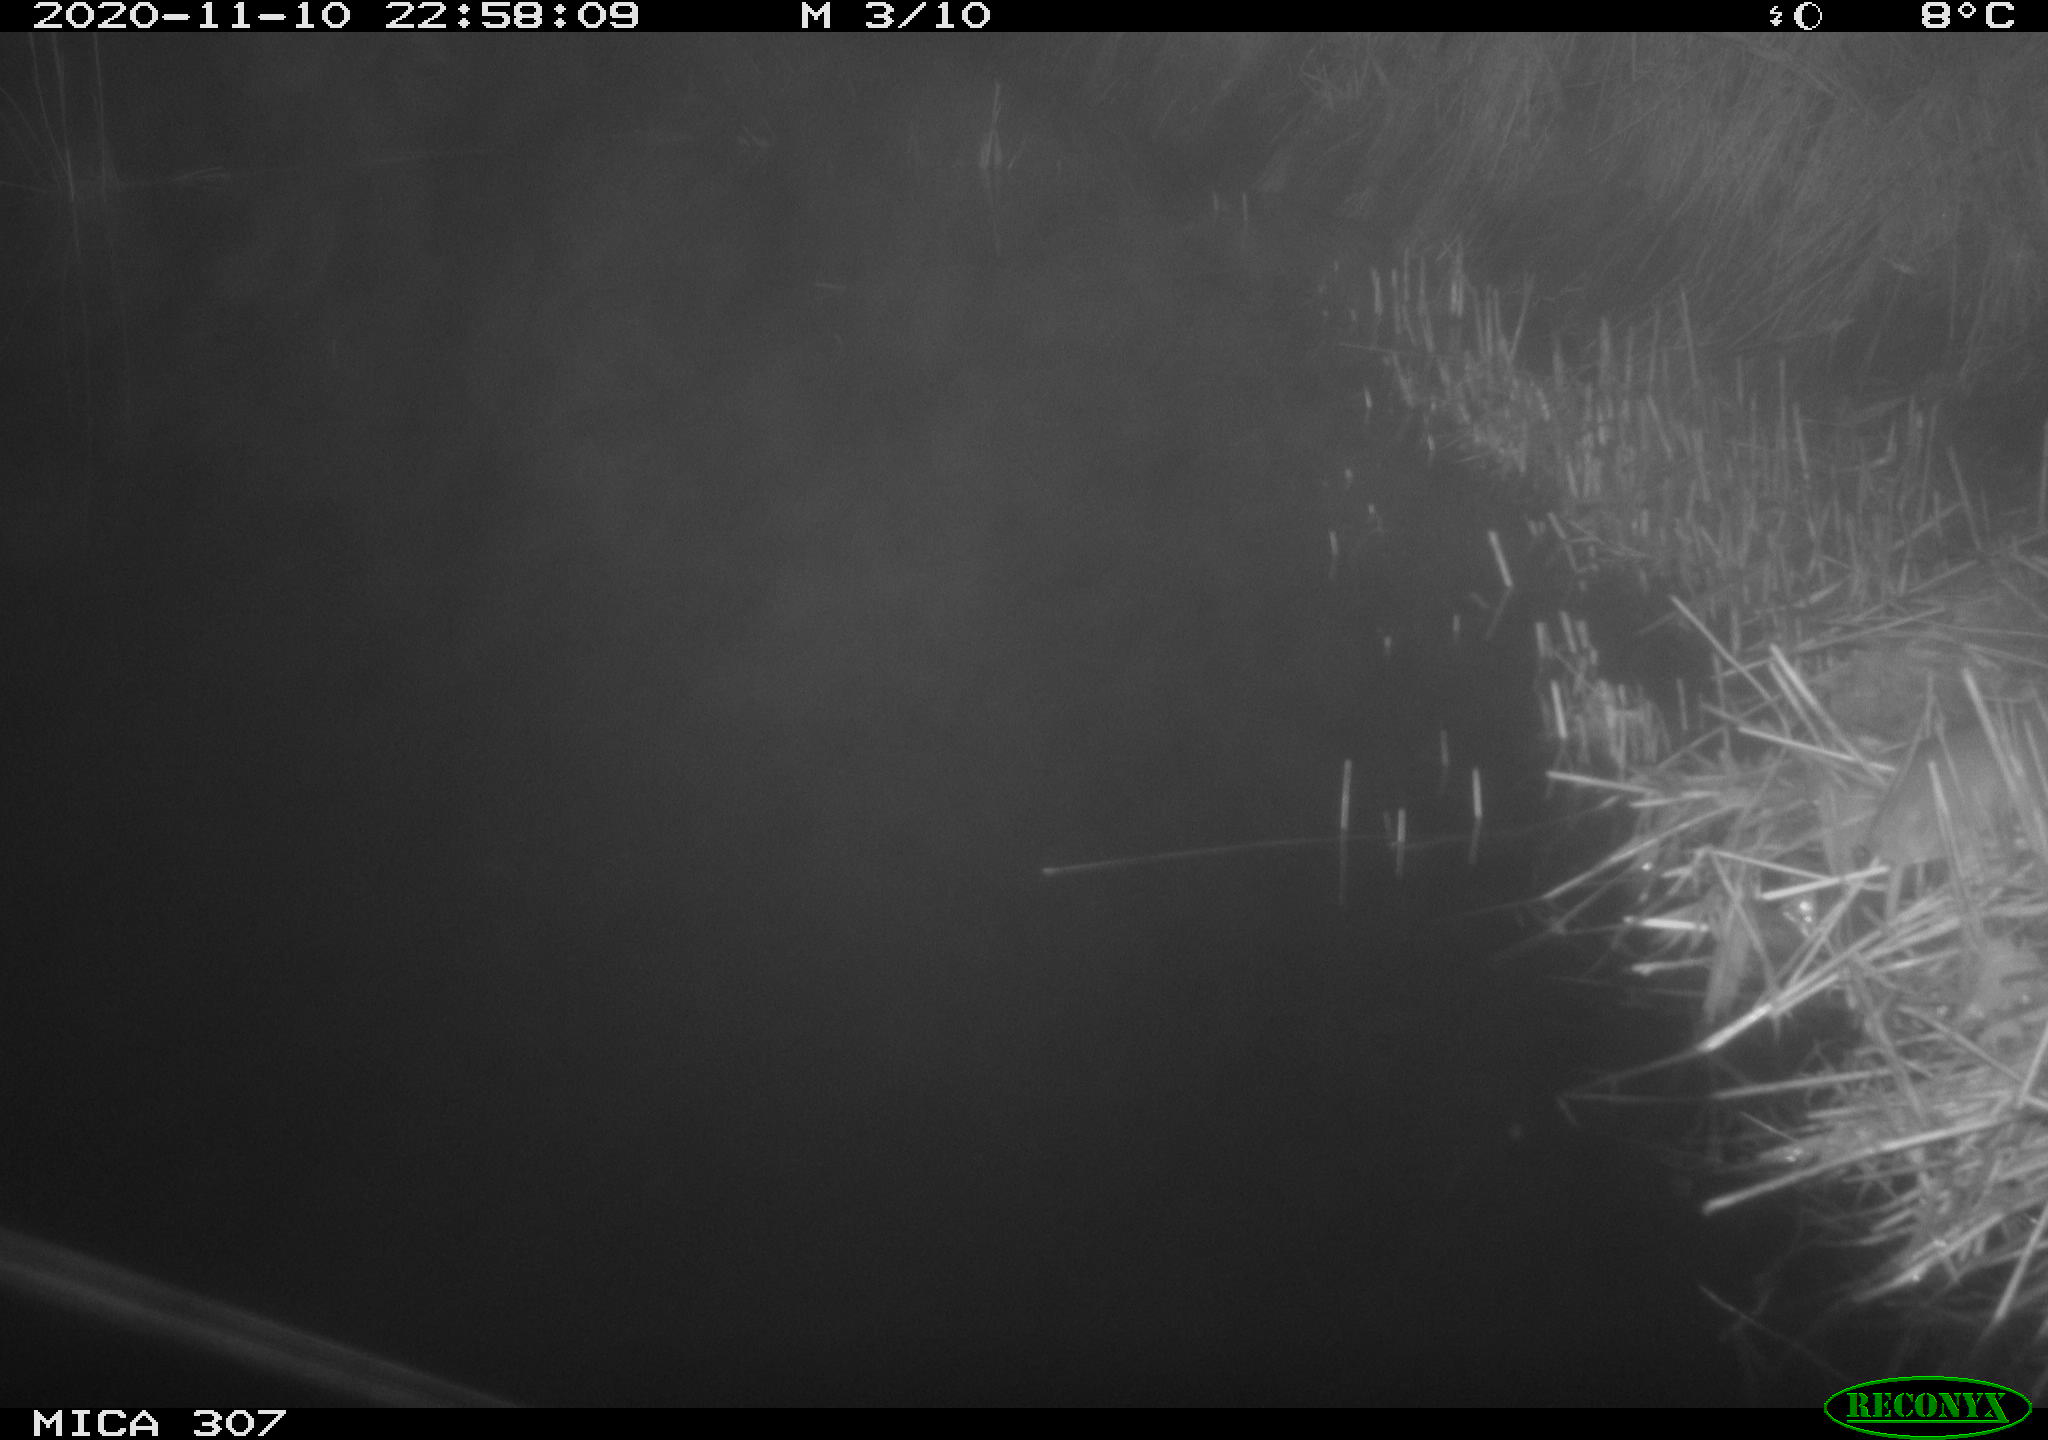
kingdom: Animalia
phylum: Chordata
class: Mammalia
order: Rodentia
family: Muridae
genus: Rattus
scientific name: Rattus norvegicus
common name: Brown rat
